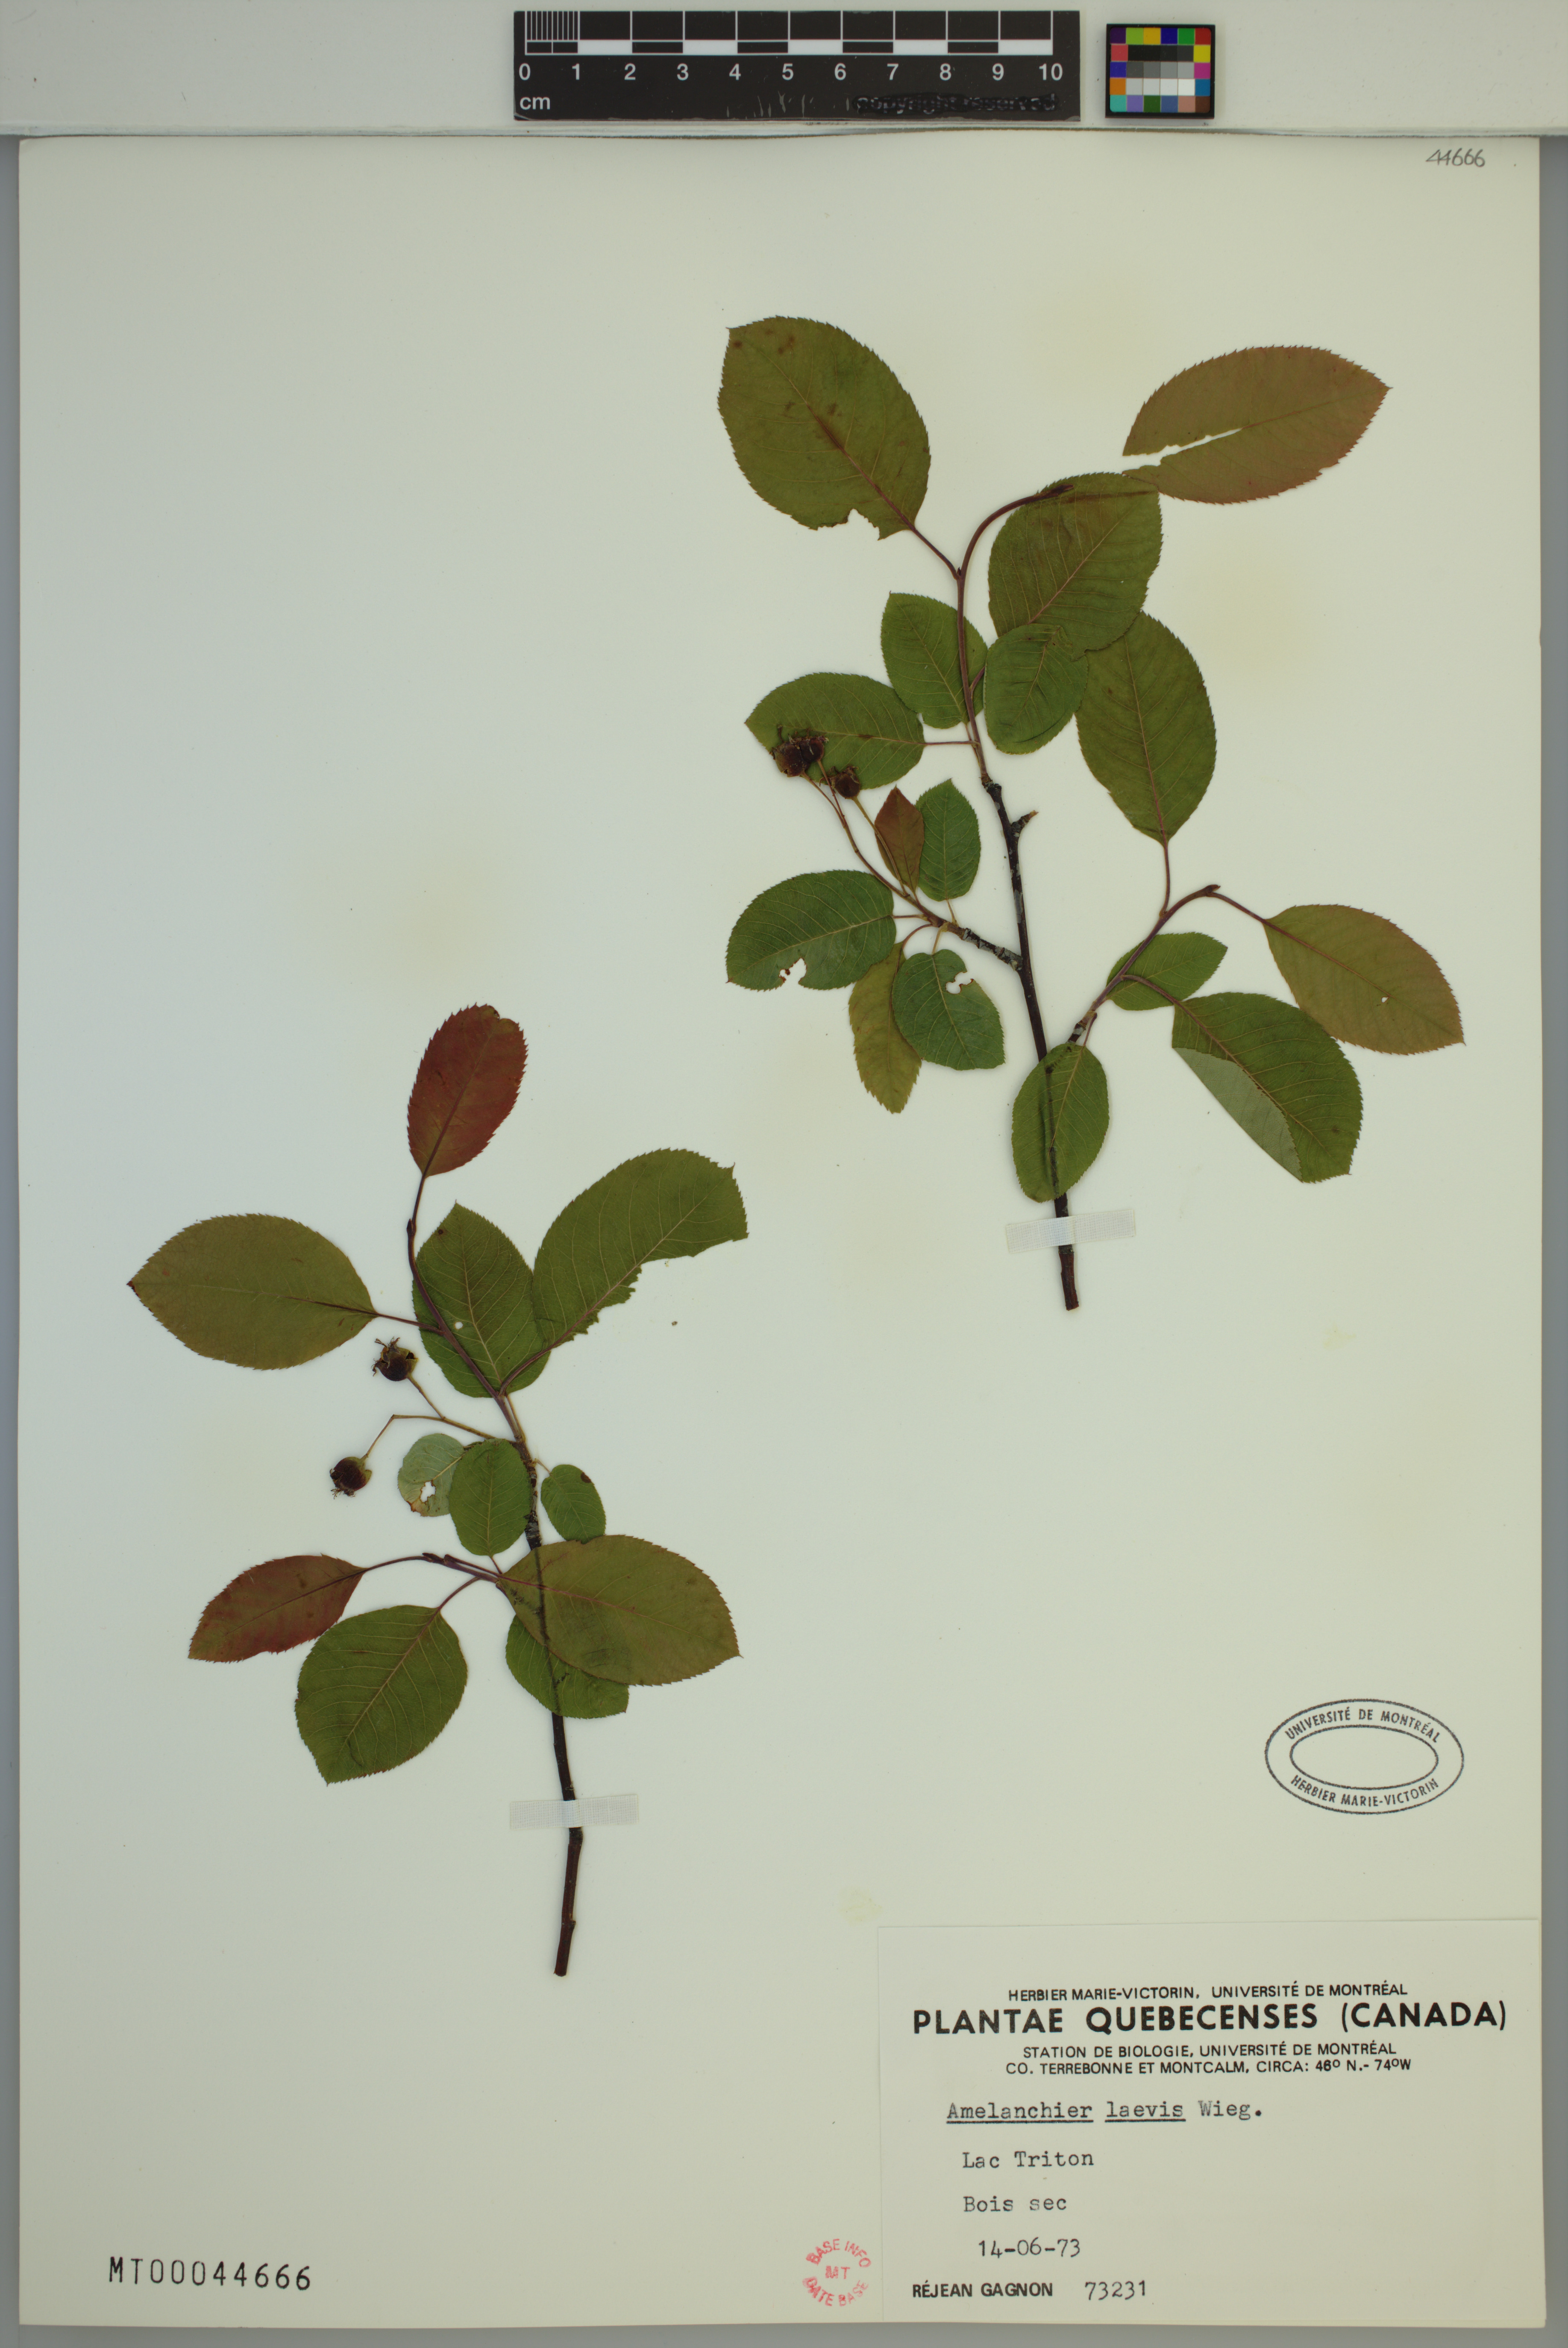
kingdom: Plantae
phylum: Tracheophyta
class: Magnoliopsida
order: Rosales
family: Rosaceae
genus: Amelanchier
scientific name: Amelanchier laevis
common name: Allegheny serviceberry
